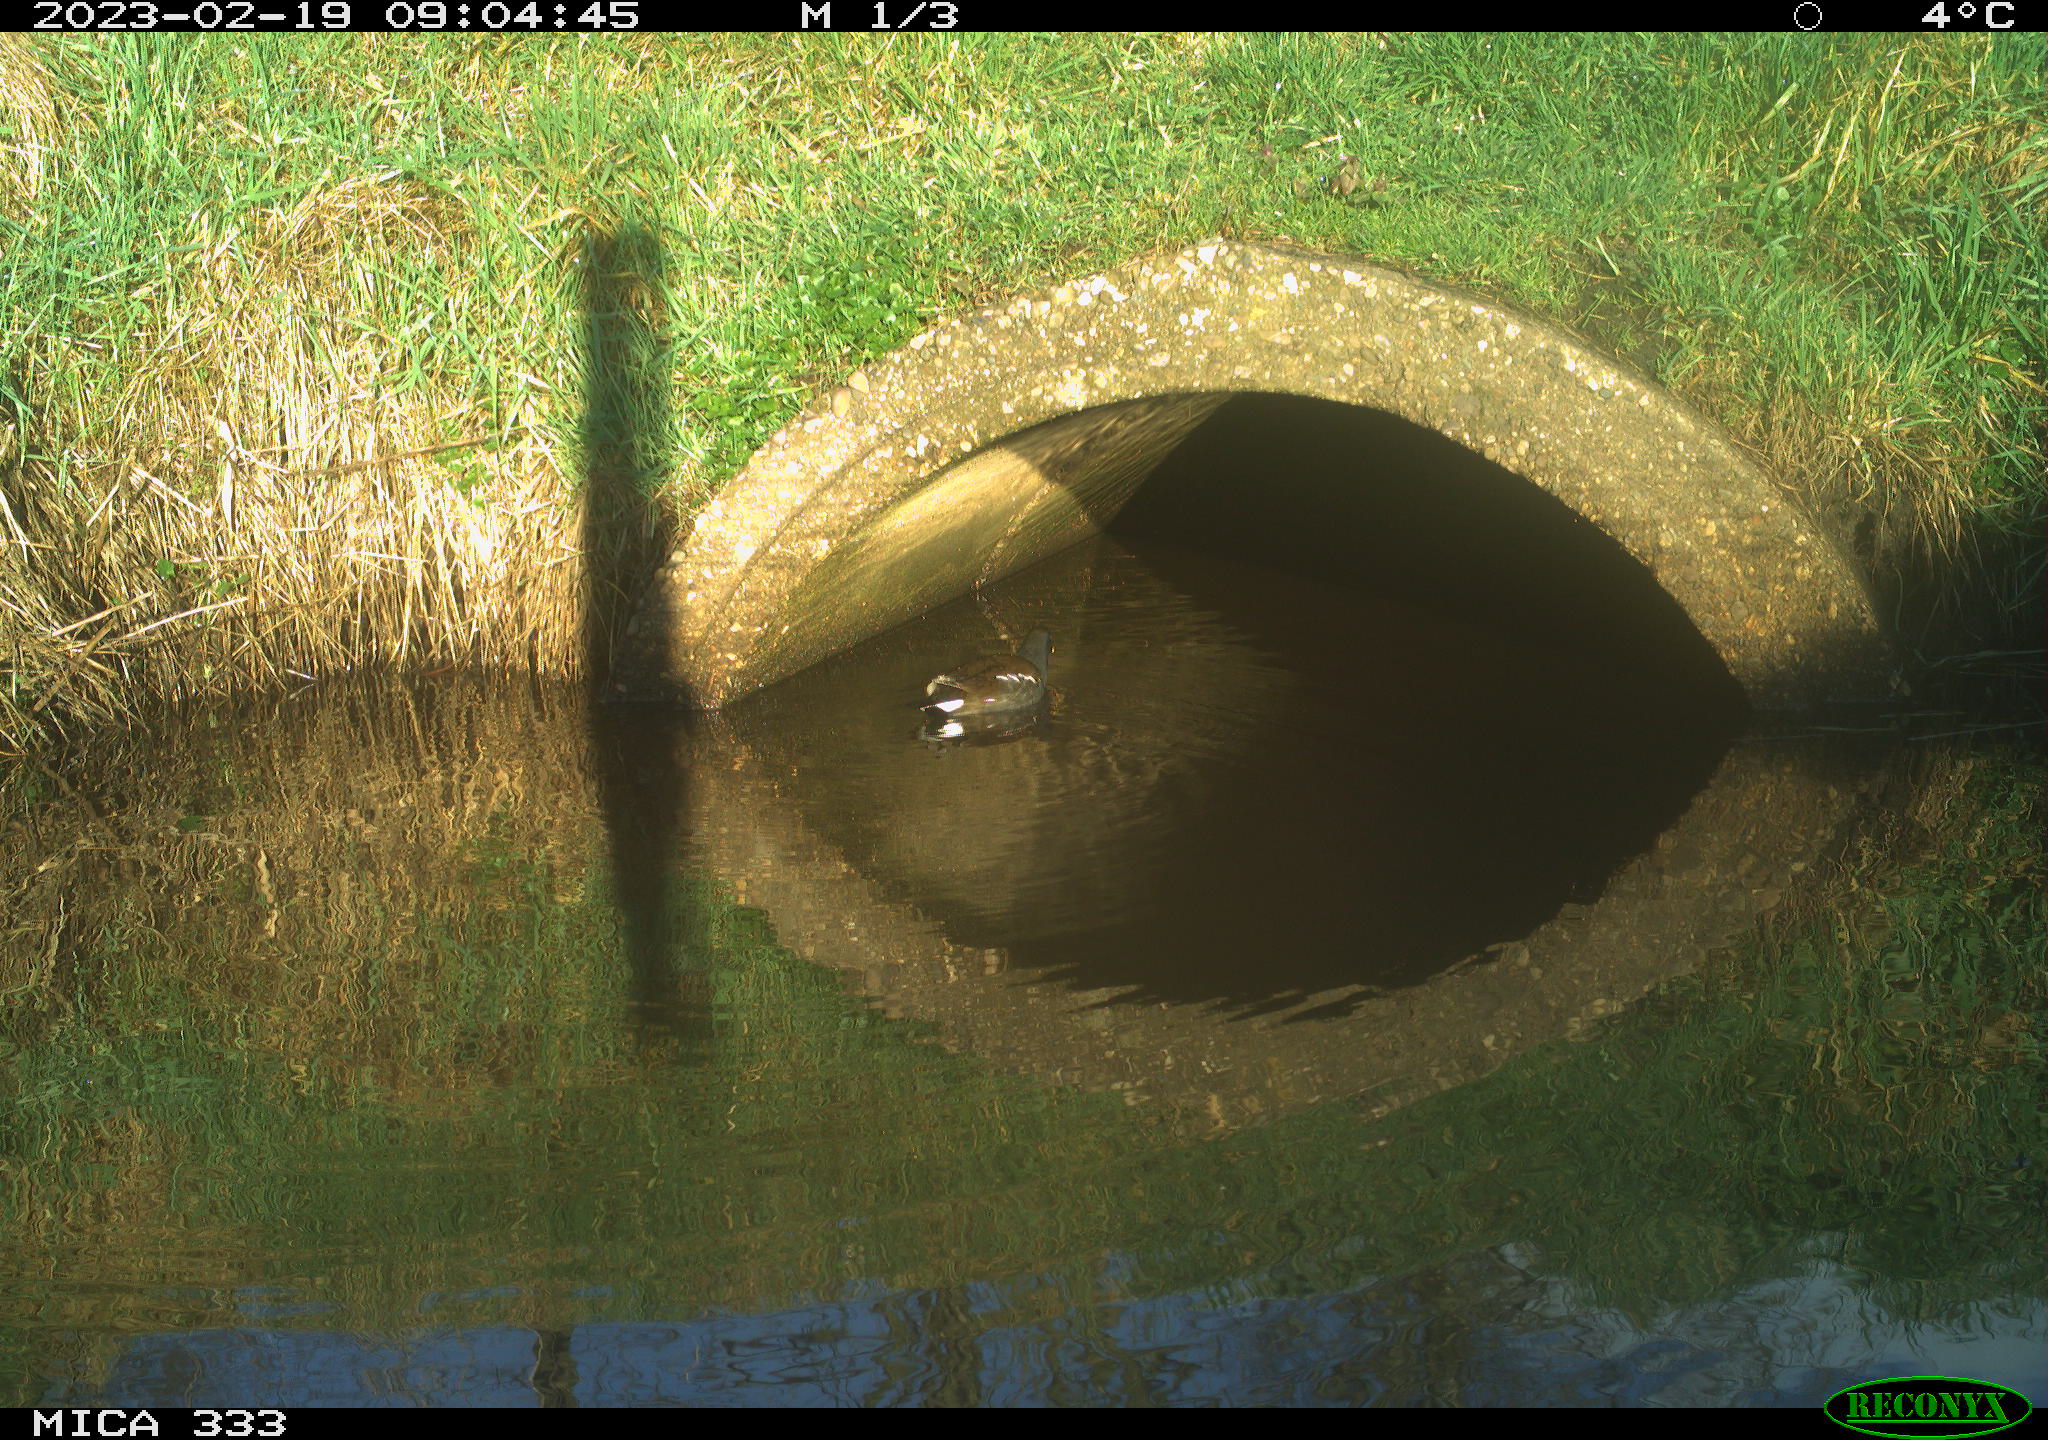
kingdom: Animalia
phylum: Chordata
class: Aves
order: Gruiformes
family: Rallidae
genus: Gallinula
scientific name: Gallinula chloropus
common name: Common moorhen
